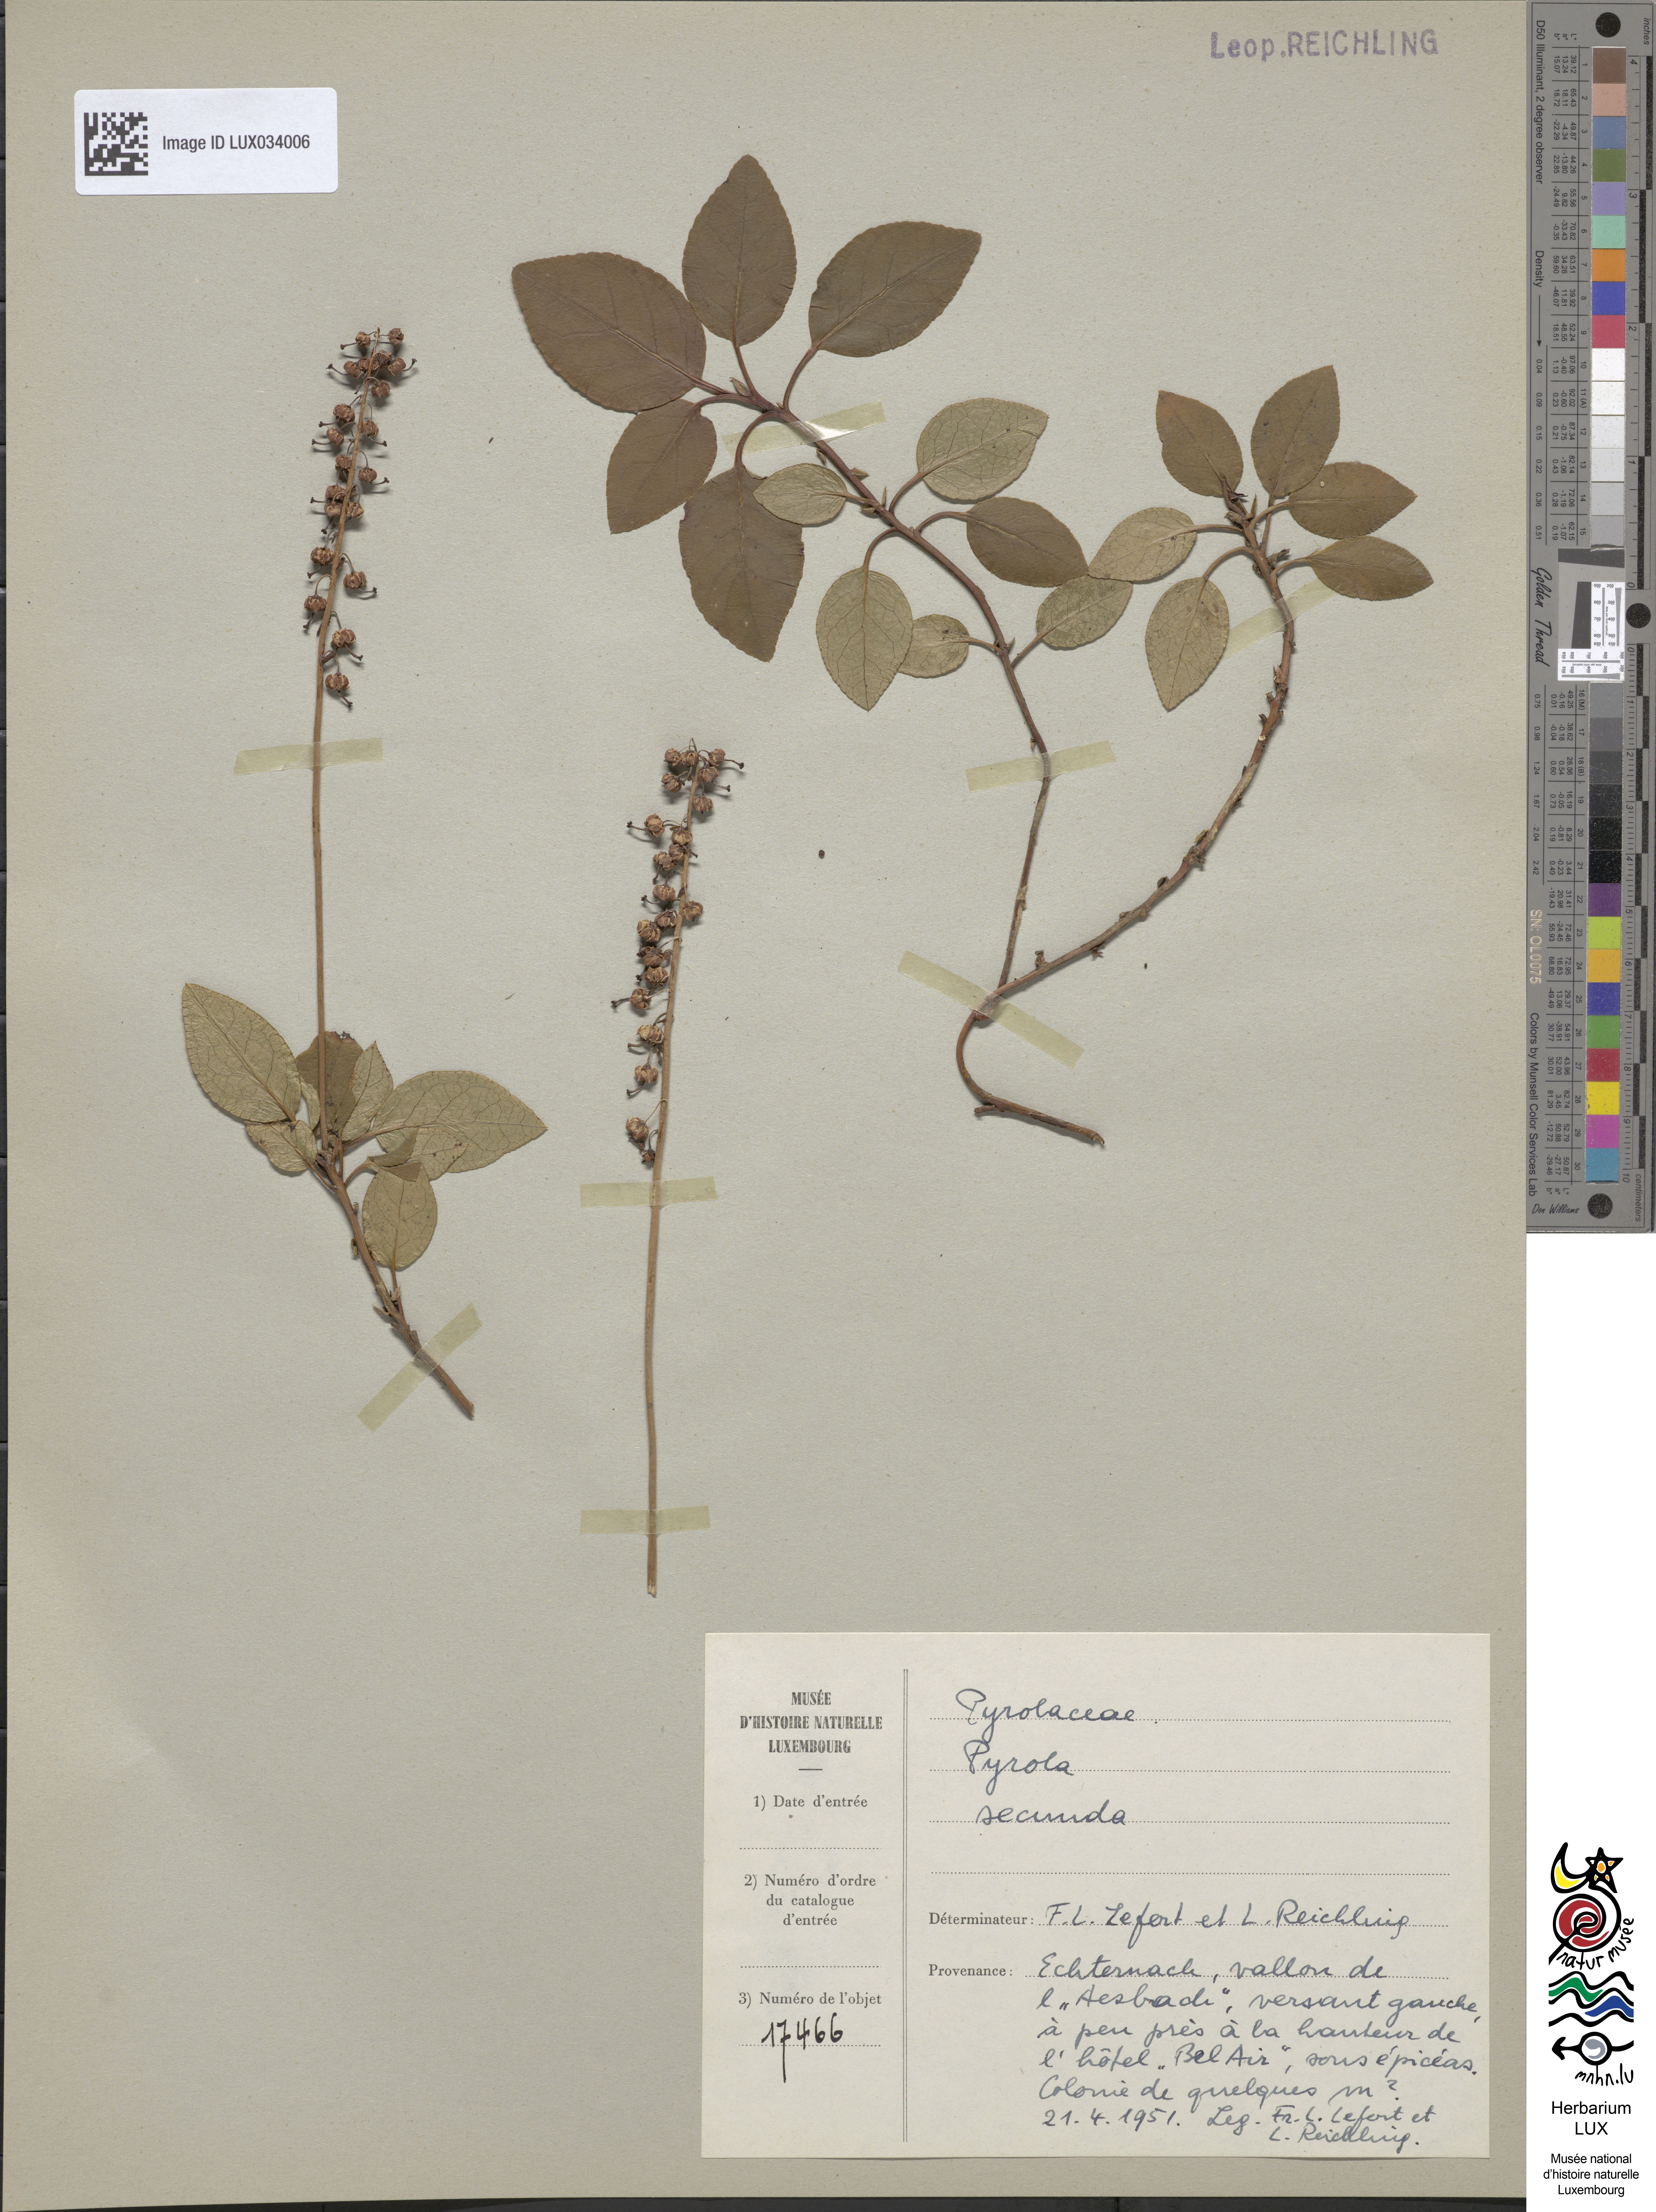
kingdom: Plantae
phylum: Tracheophyta
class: Magnoliopsida
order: Ericales
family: Ericaceae
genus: Orthilia
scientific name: Orthilia secunda
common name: One-sided orthilia
